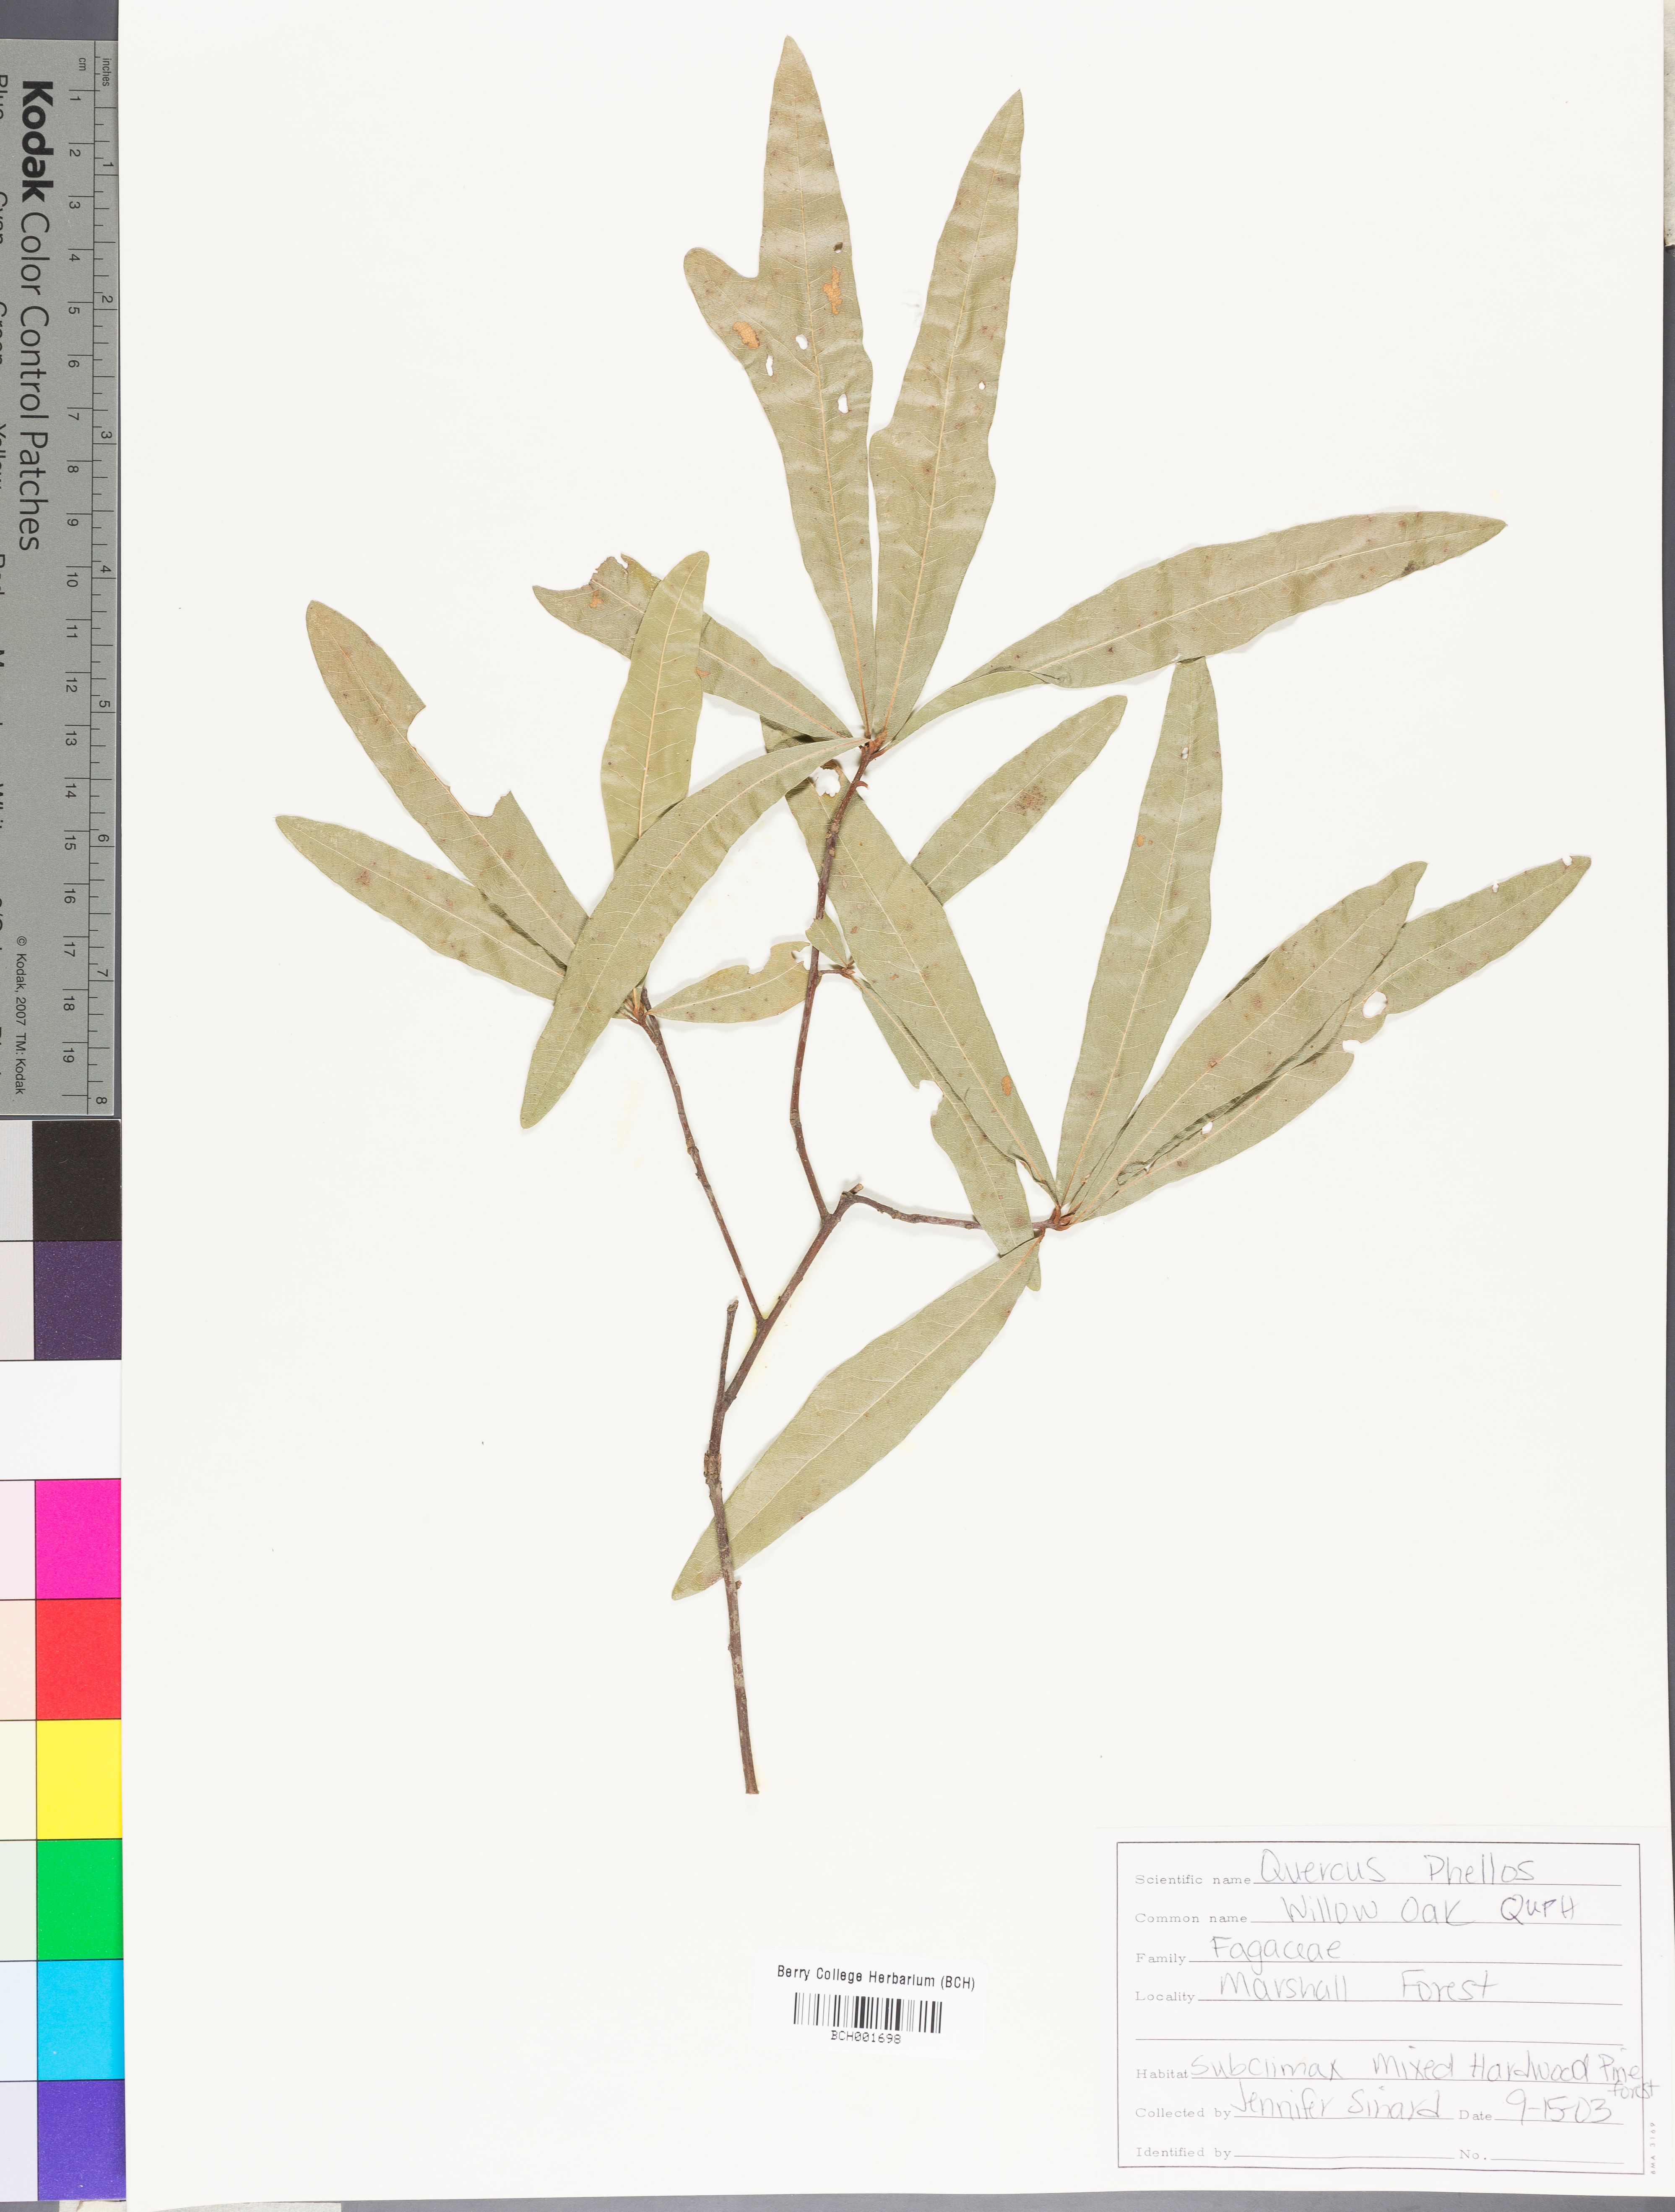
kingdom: Plantae
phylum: Tracheophyta
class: Magnoliopsida
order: Fagales
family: Fagaceae
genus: Quercus
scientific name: Quercus phellos
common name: Willow oak
